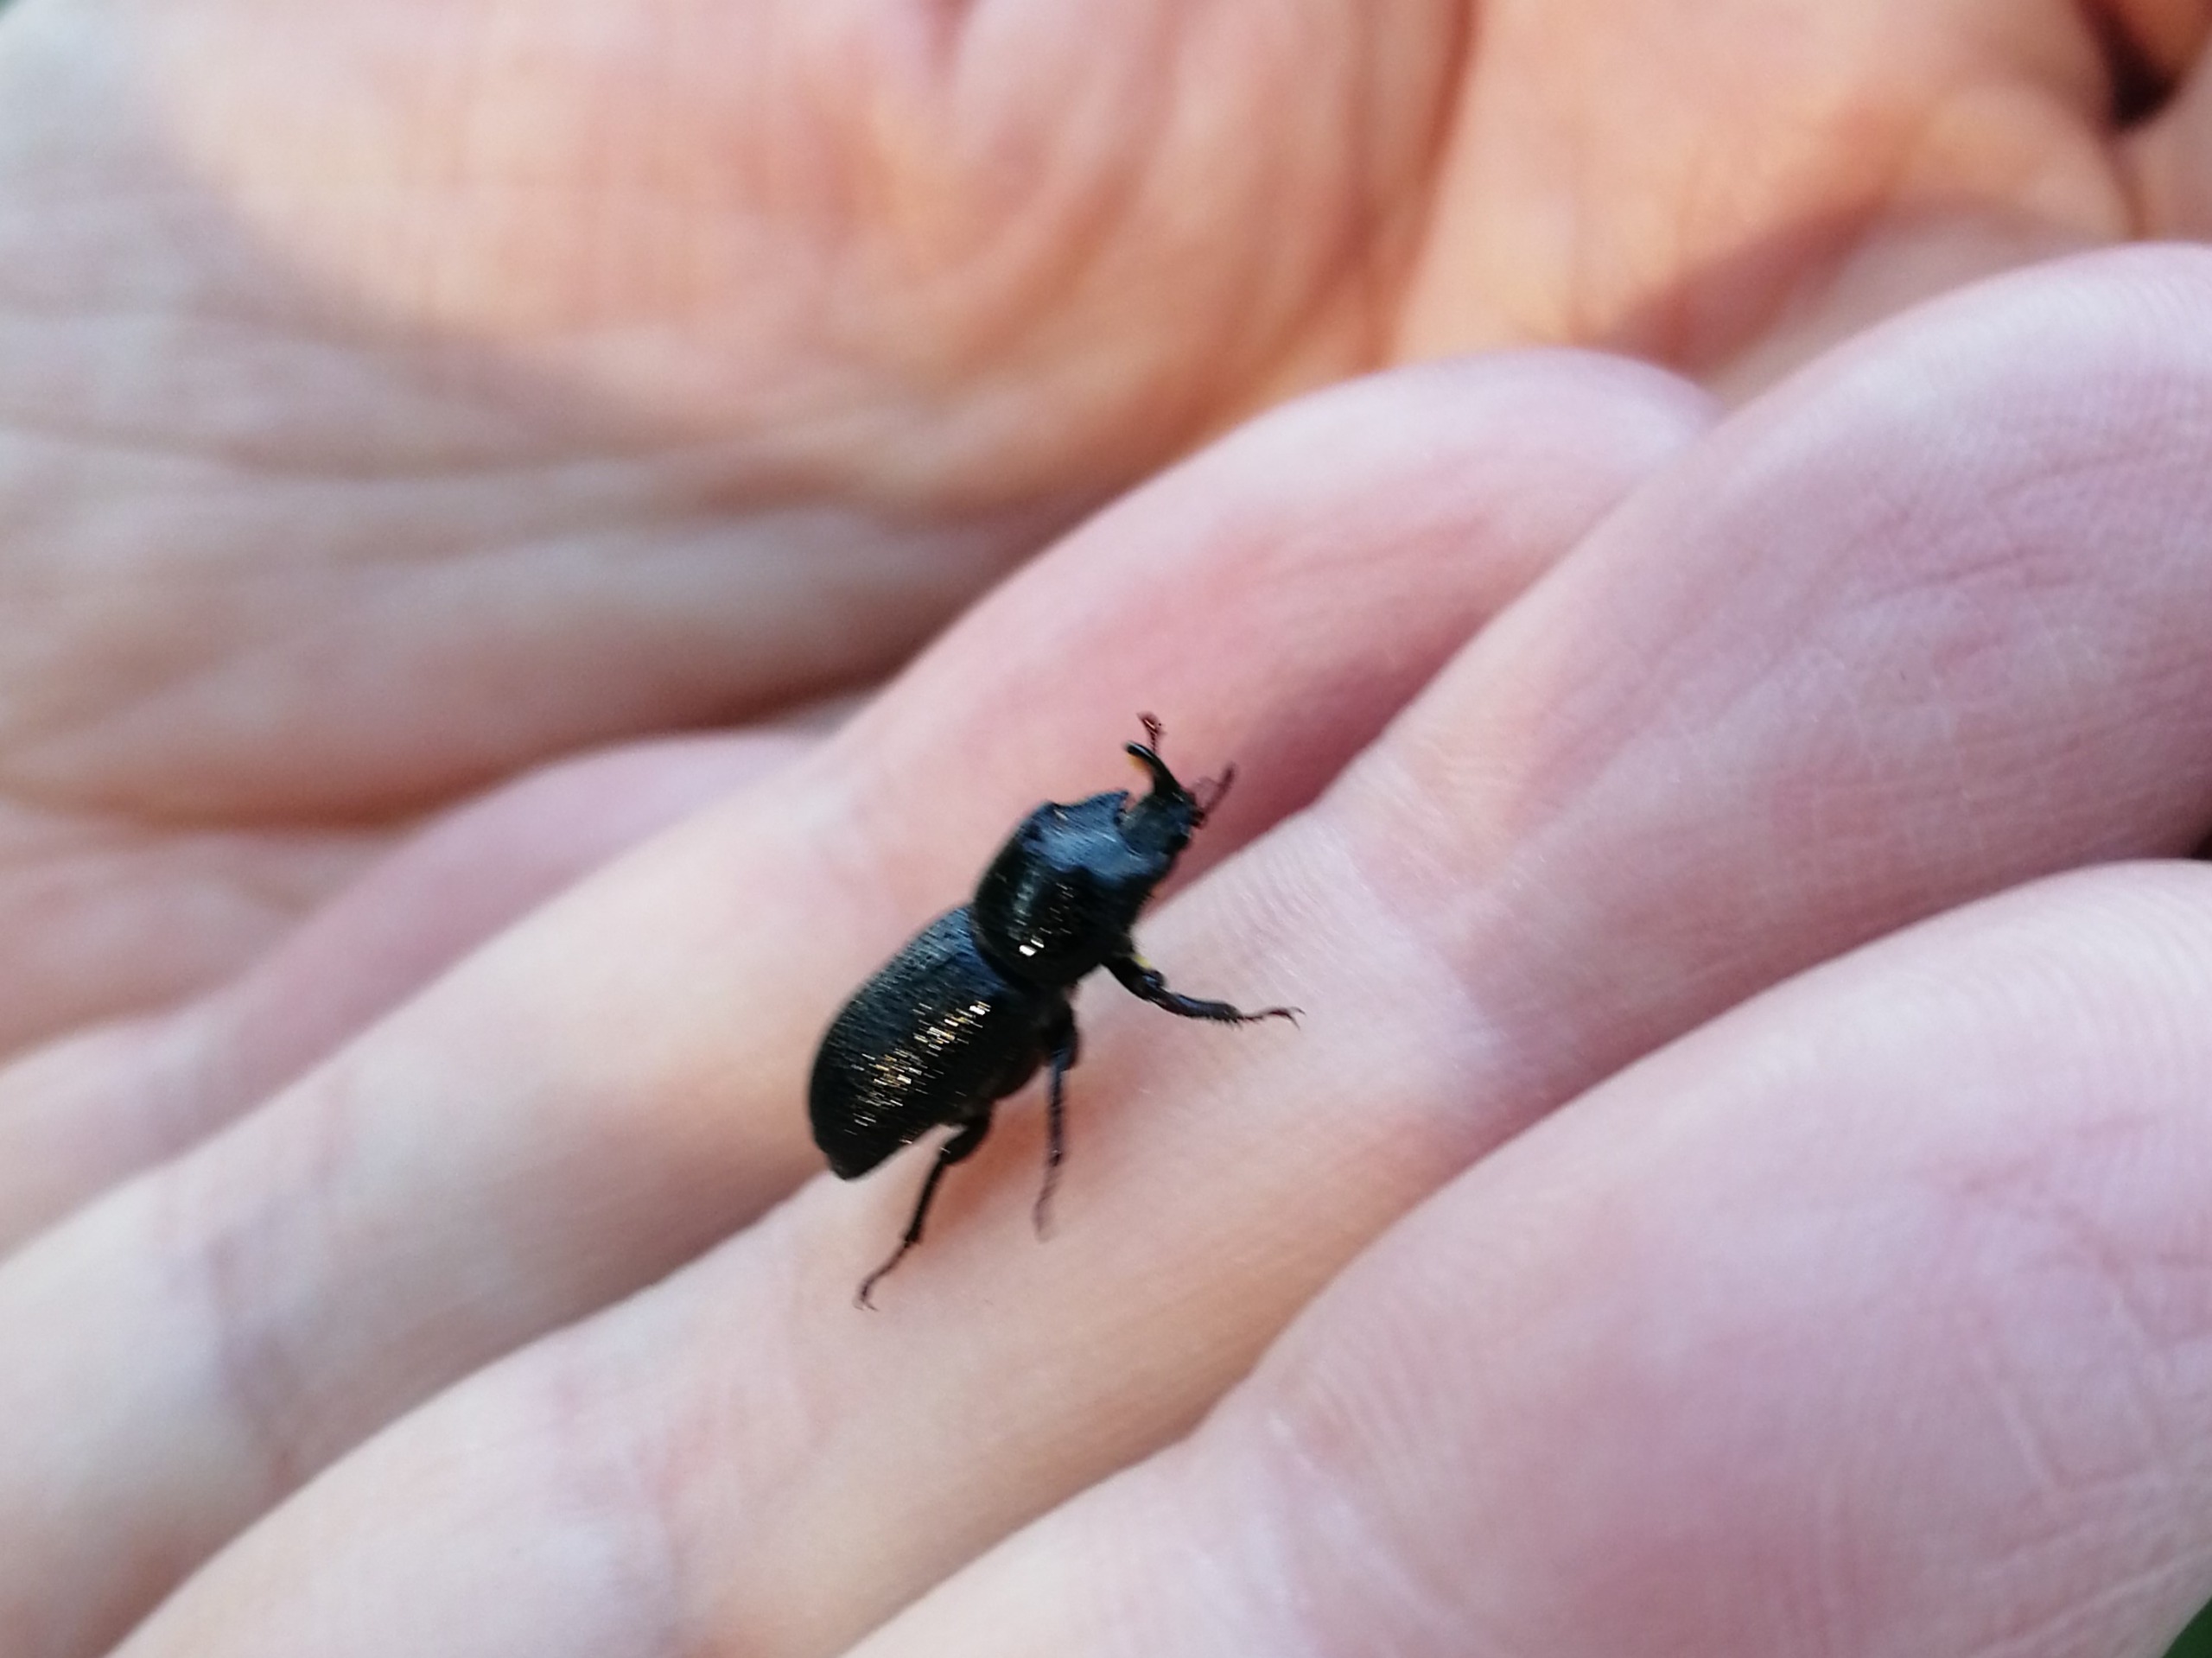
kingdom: Animalia
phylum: Arthropoda
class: Insecta
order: Coleoptera
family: Lucanidae
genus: Sinodendron
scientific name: Sinodendron cylindricum
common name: Valsehjort
